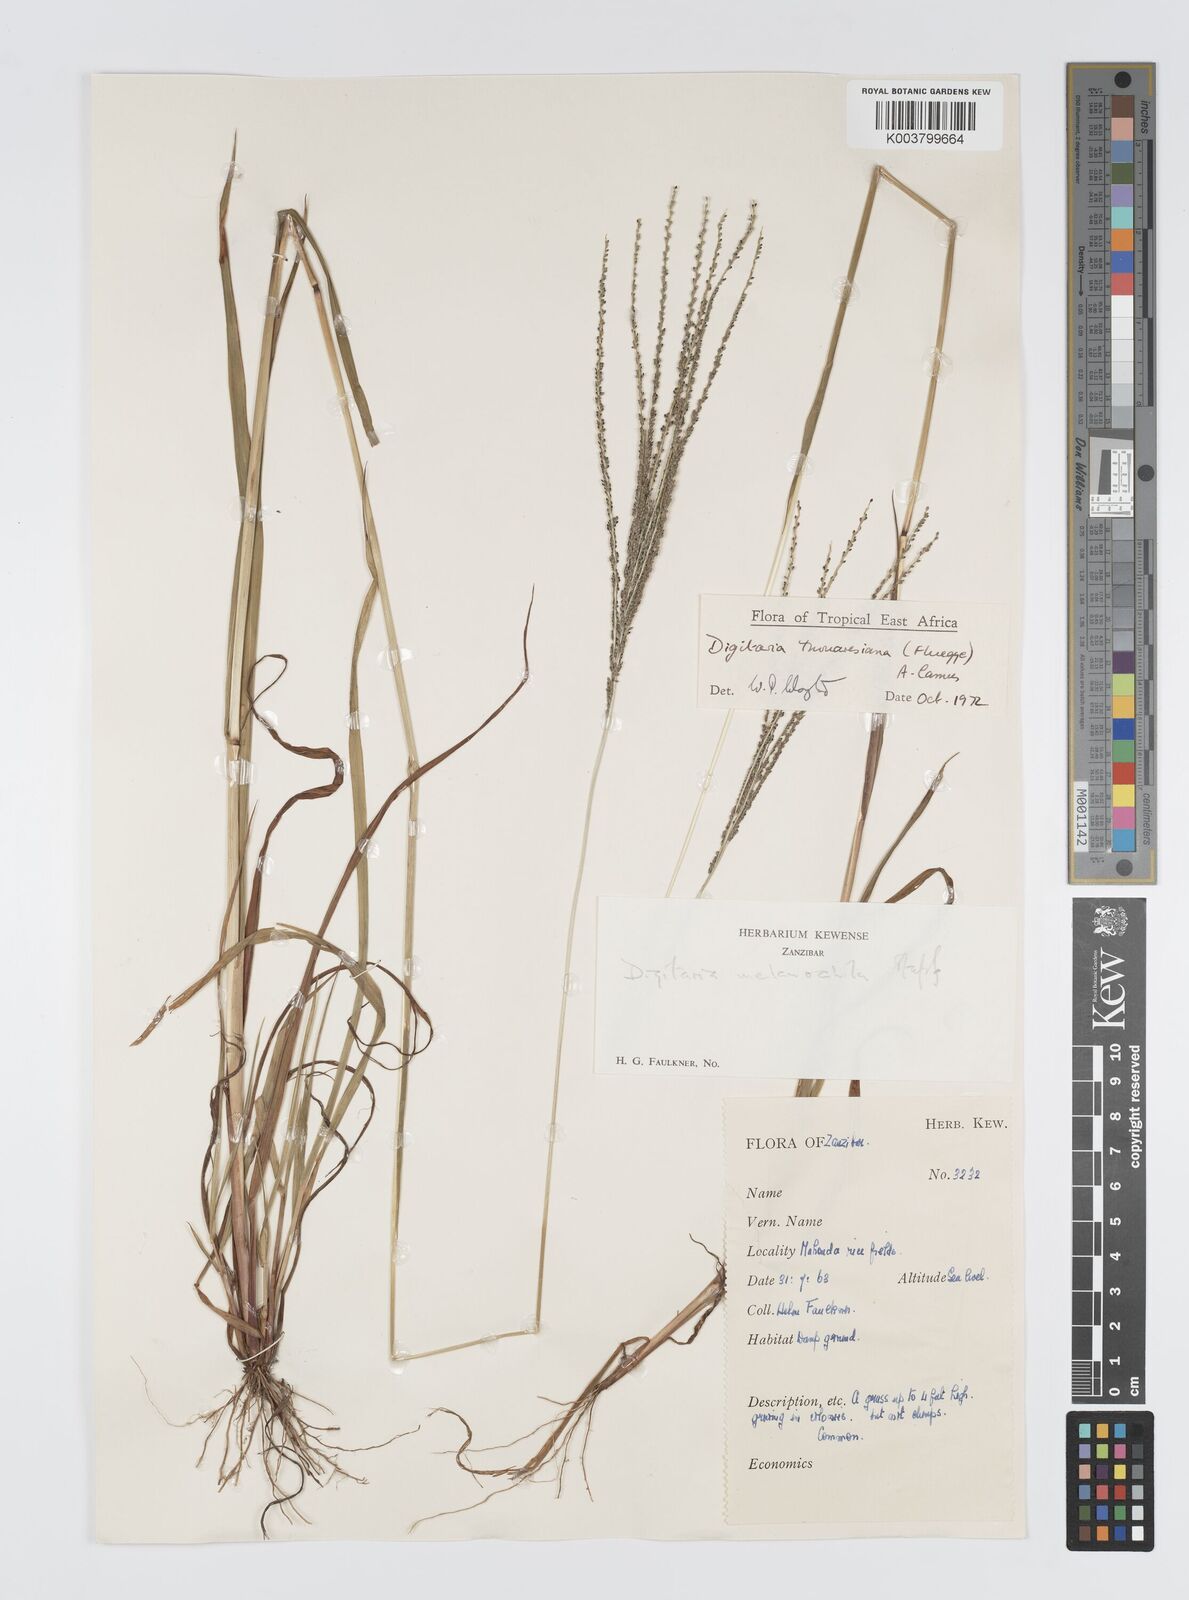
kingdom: Plantae
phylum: Tracheophyta
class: Liliopsida
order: Poales
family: Poaceae
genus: Digitaria
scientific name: Digitaria thouarsiana
